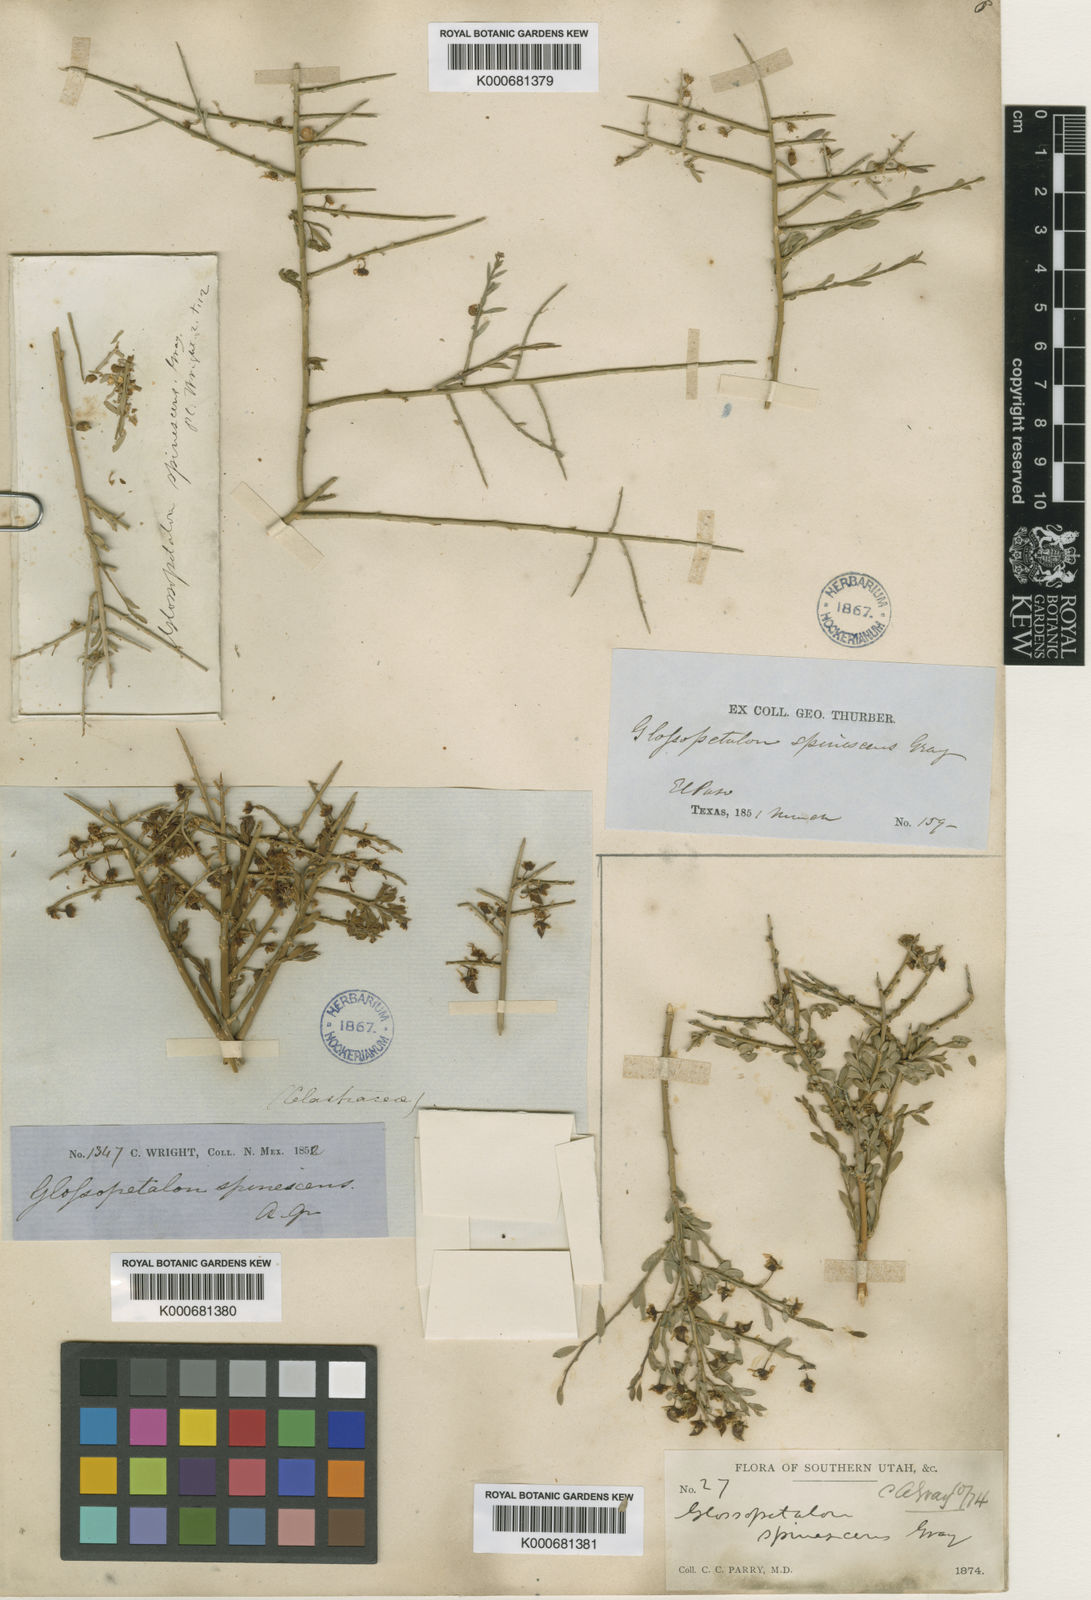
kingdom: Plantae
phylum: Tracheophyta
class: Magnoliopsida
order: Crossosomatales
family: Crossosomataceae
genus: Glossopetalon
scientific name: Glossopetalon spinescens
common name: Spring greasebush
